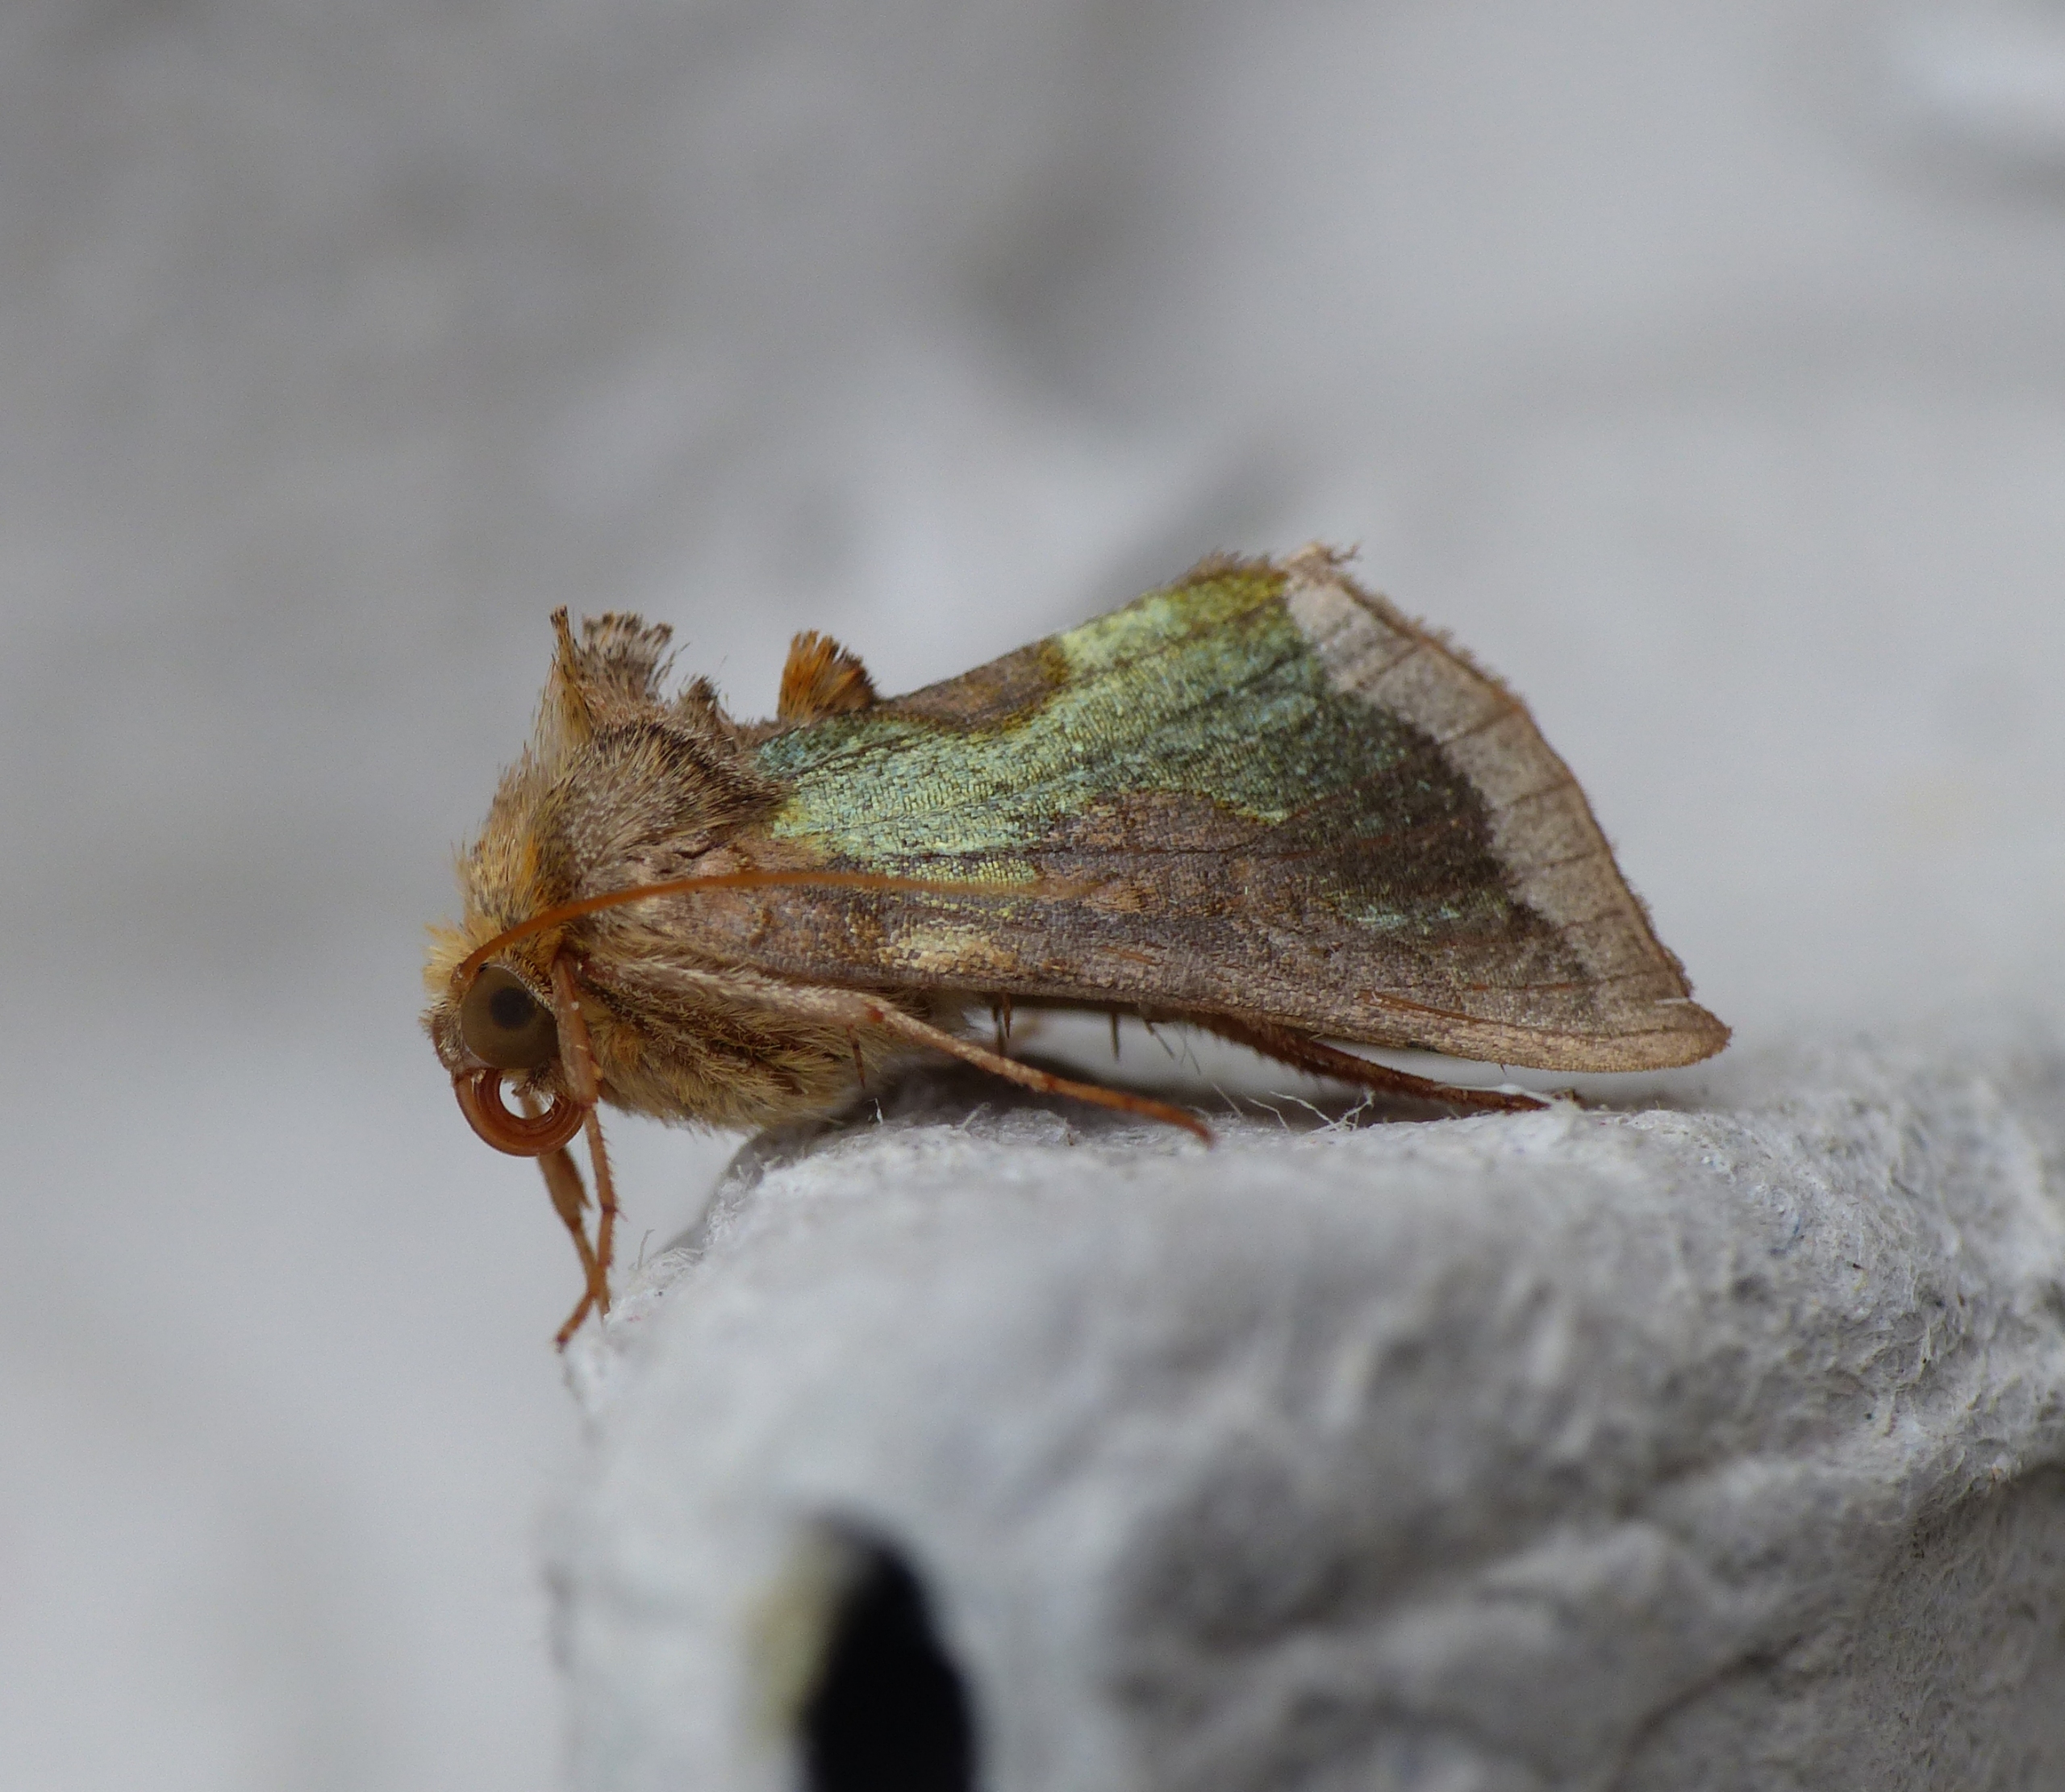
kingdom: Animalia
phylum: Arthropoda
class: Insecta
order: Lepidoptera
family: Noctuidae
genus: Diachrysia
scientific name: Diachrysia chrysitis
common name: Messingugle
